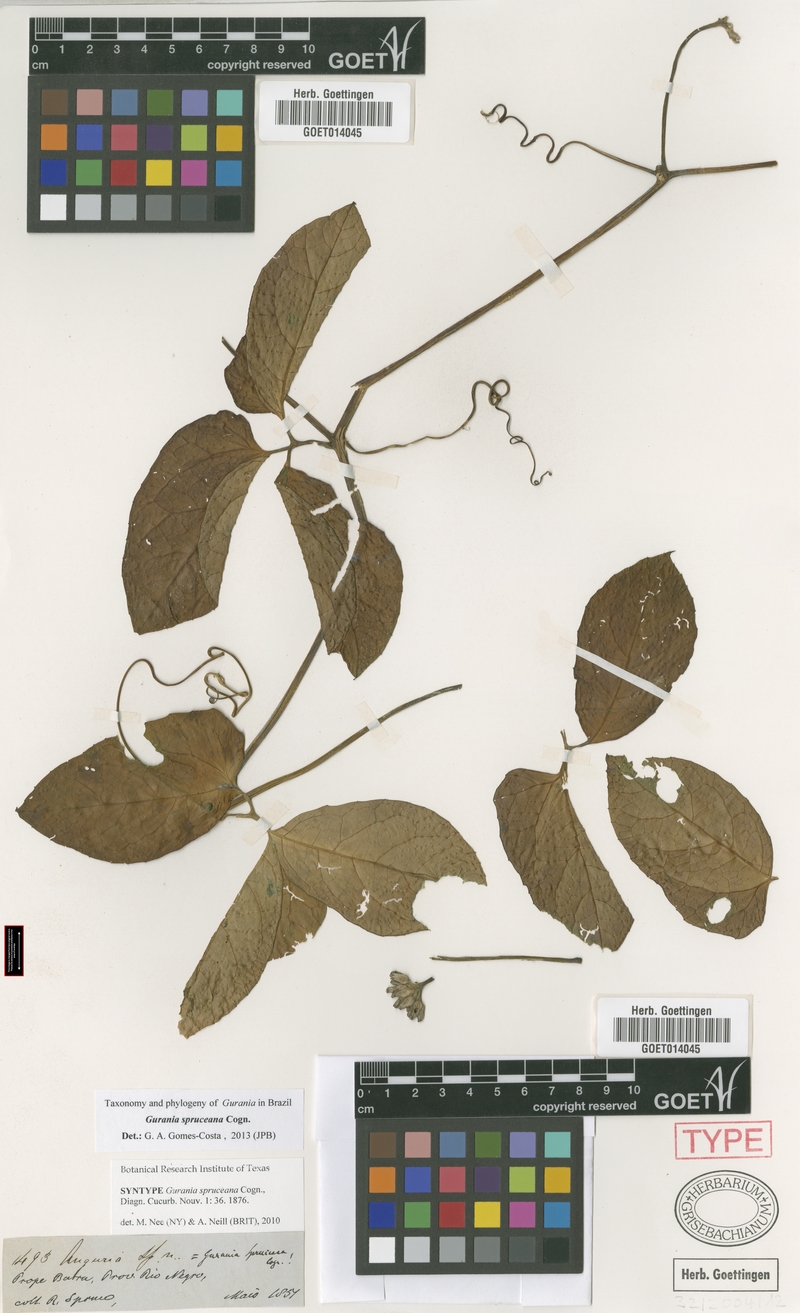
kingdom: Plantae
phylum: Tracheophyta
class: Magnoliopsida
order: Cucurbitales
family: Cucurbitaceae
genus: Gurania
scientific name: Gurania spruceana
